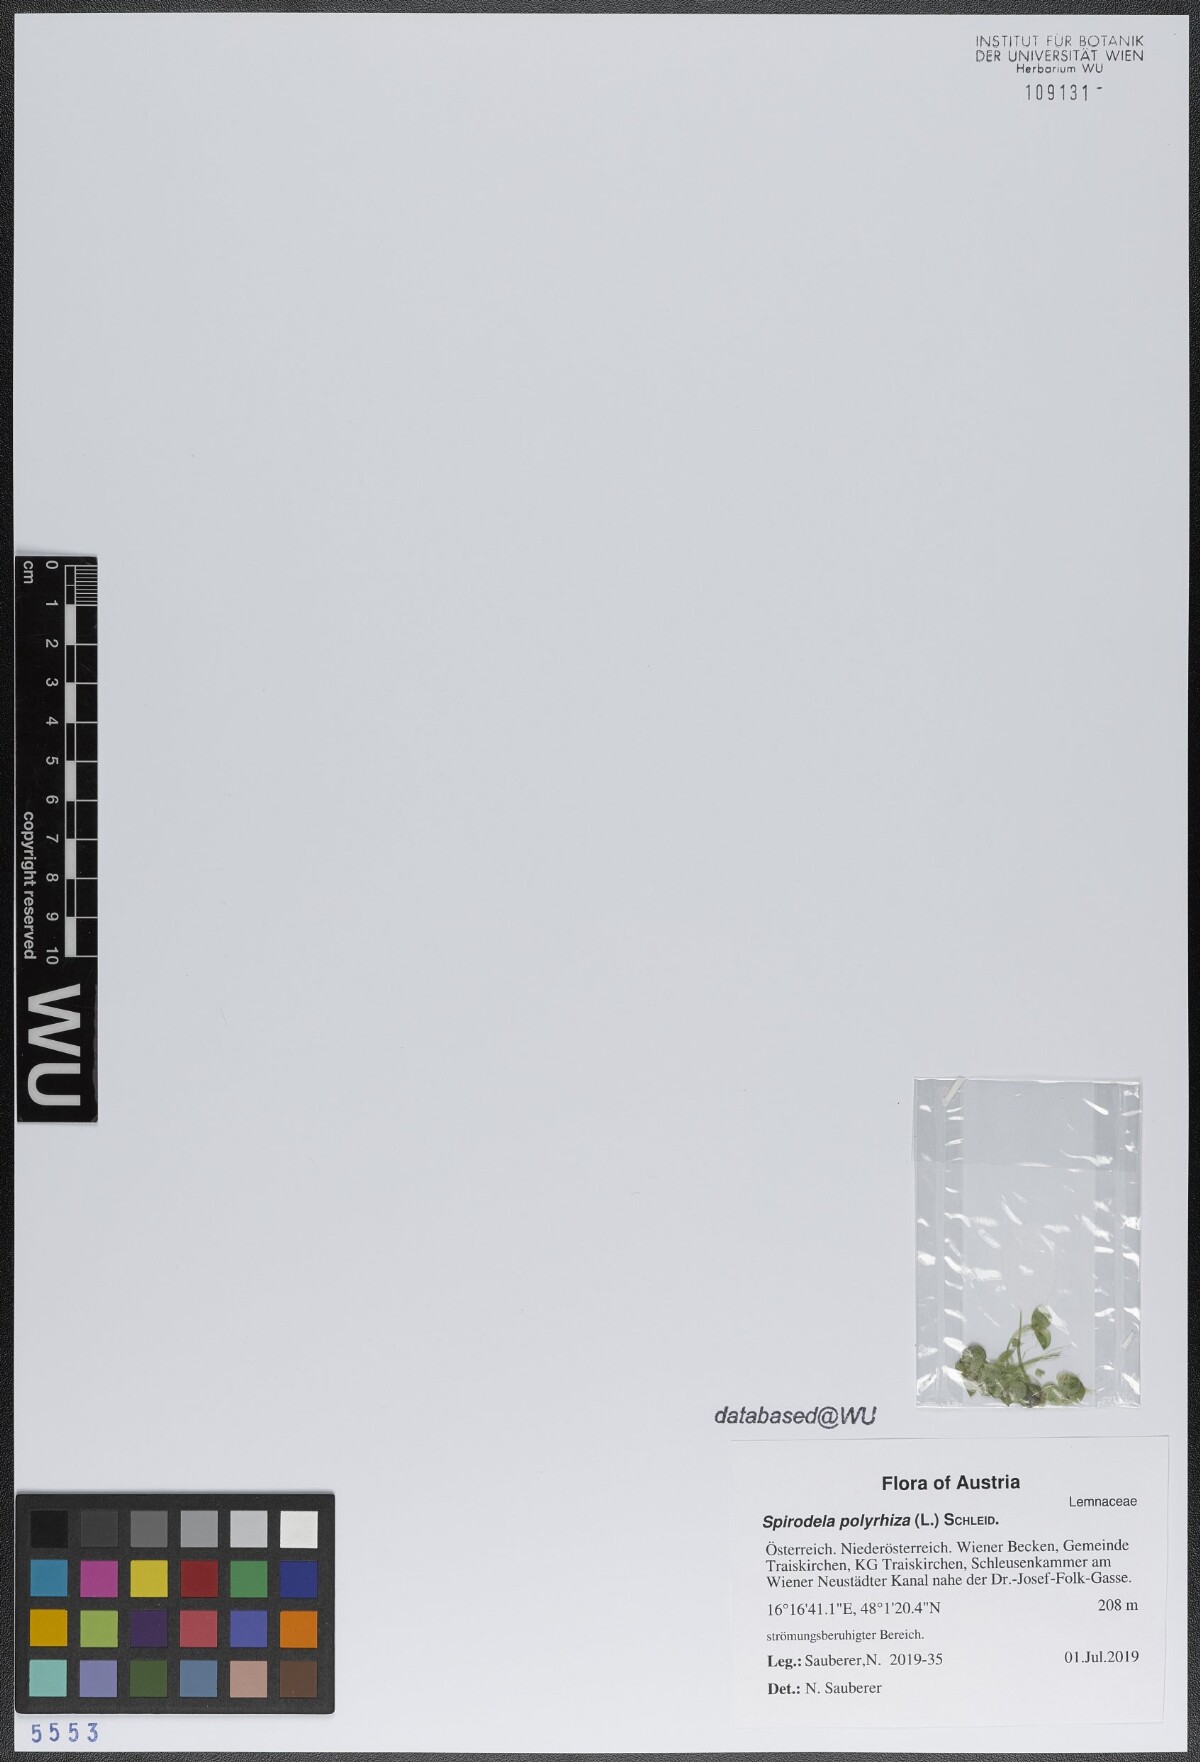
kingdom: Plantae
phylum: Tracheophyta
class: Liliopsida
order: Alismatales
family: Araceae
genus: Spirodela
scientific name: Spirodela polyrhiza
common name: Great duckweed
